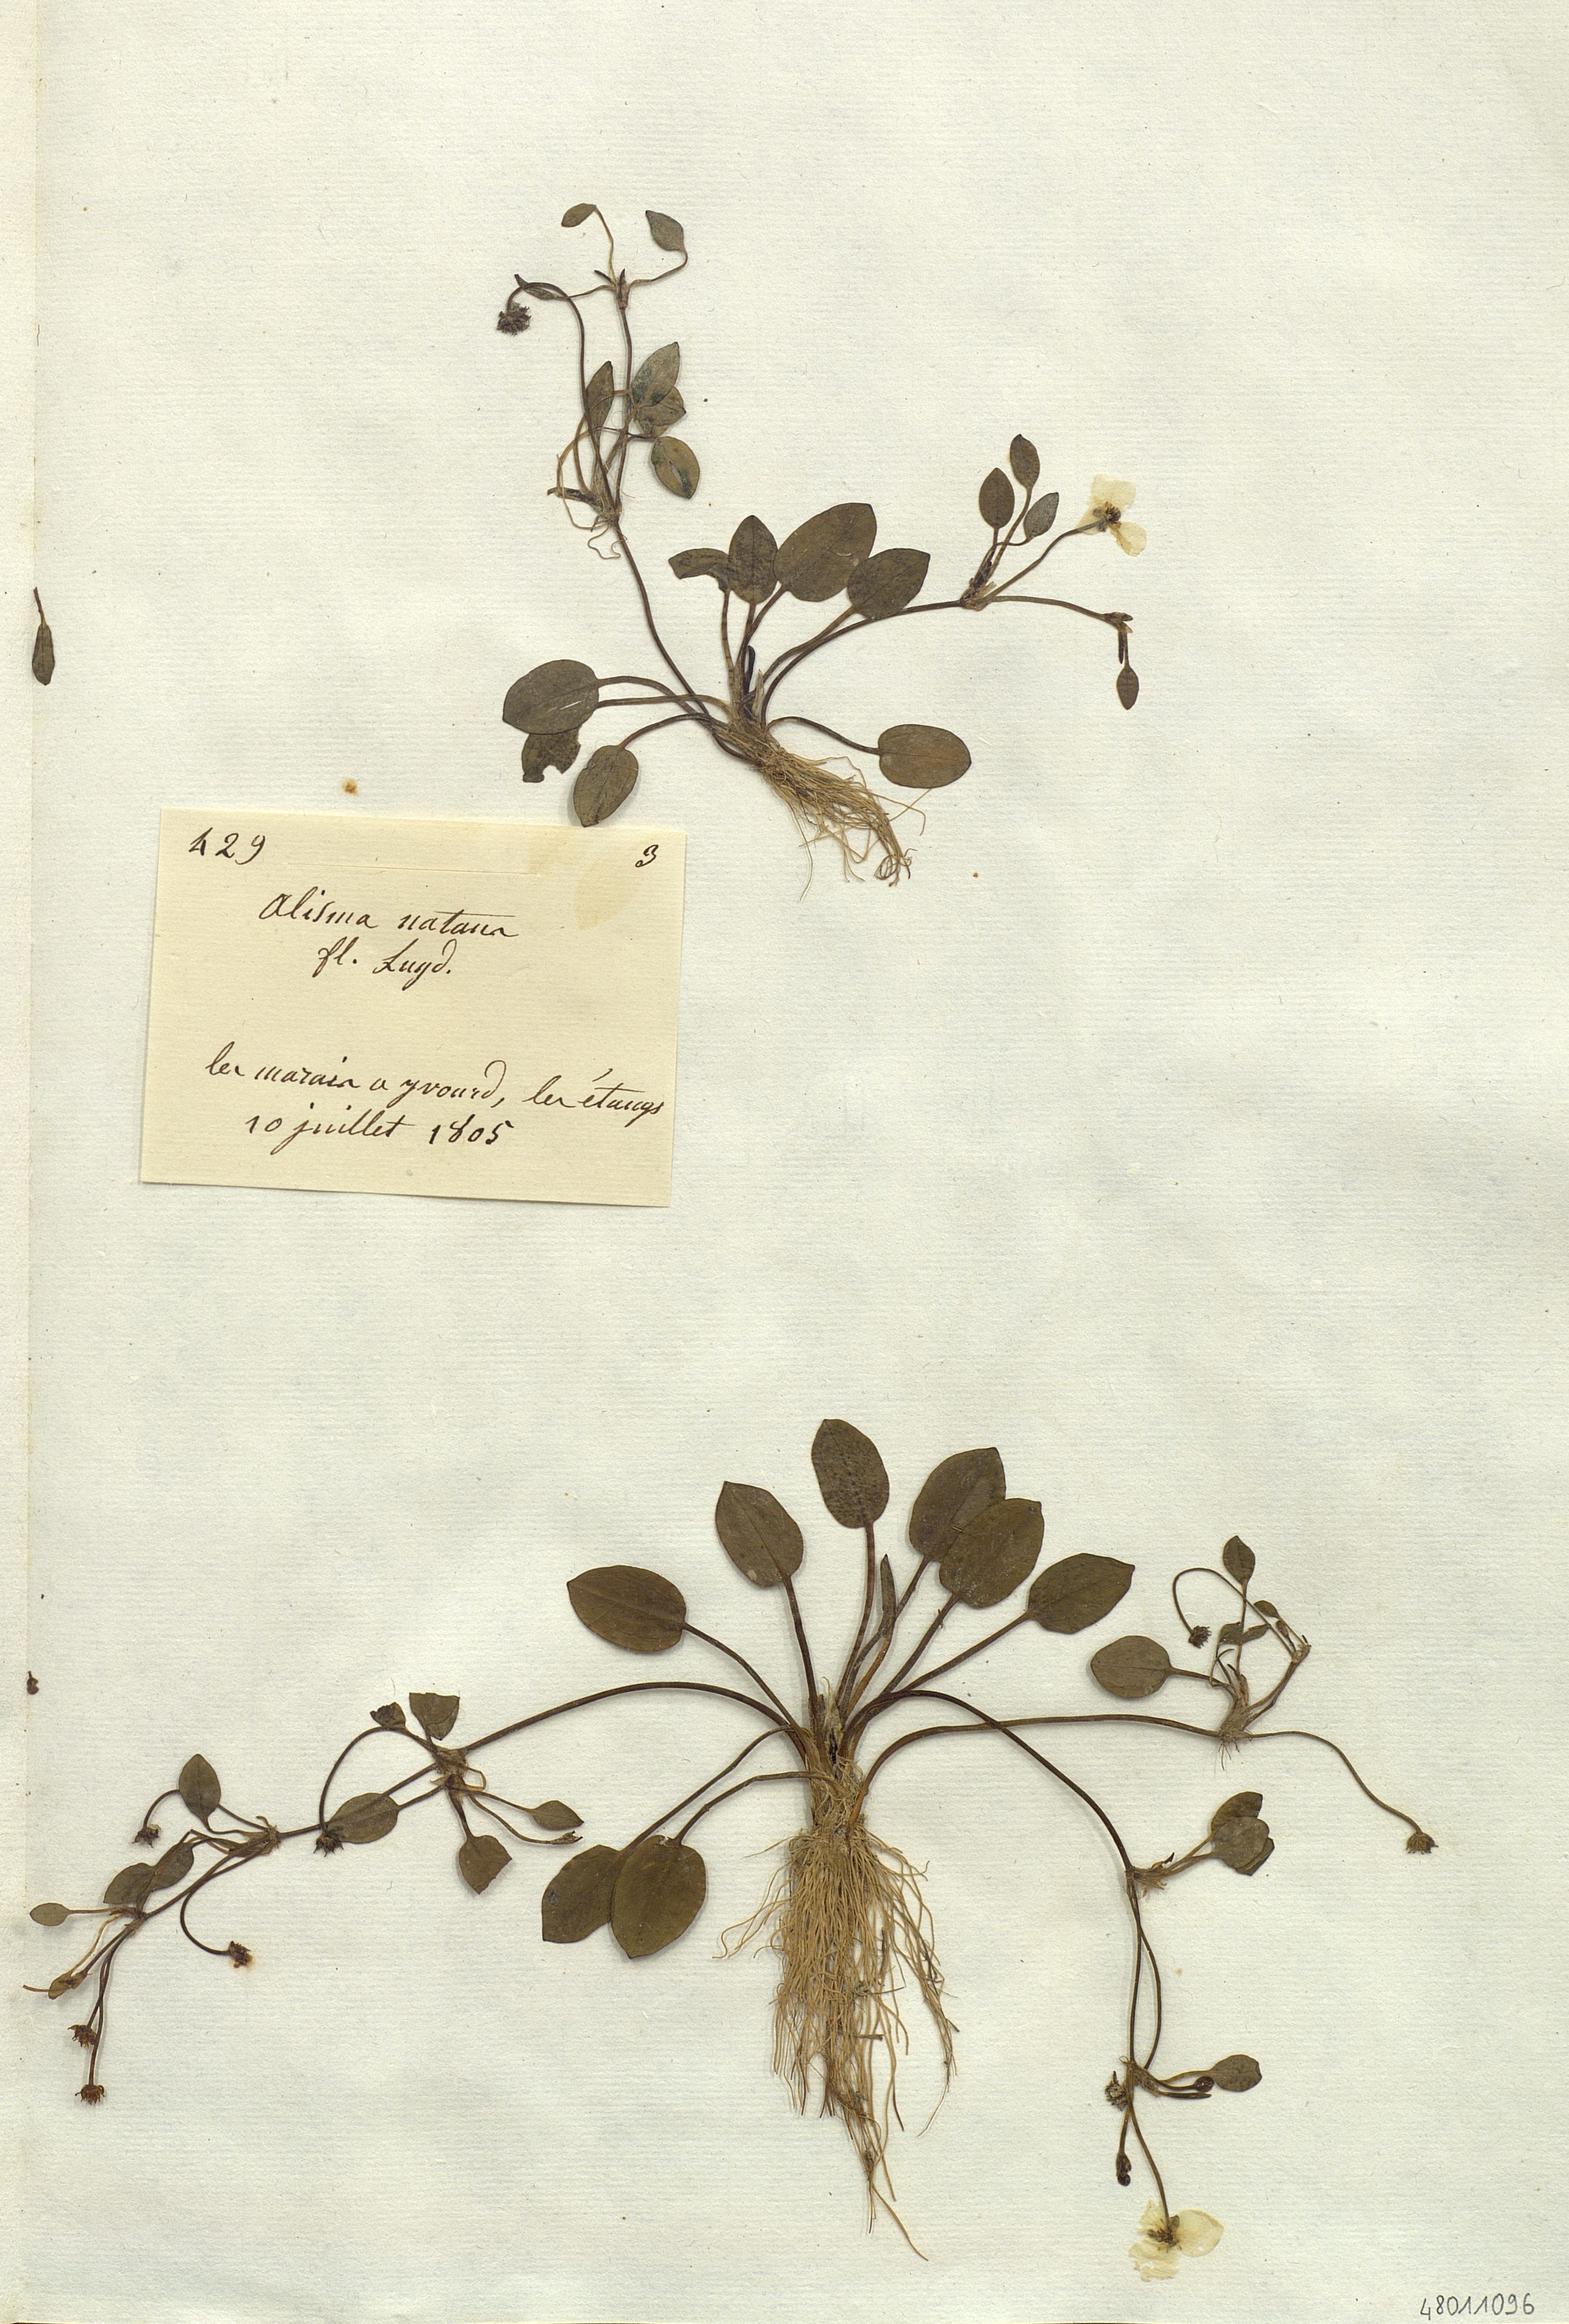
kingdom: Plantae
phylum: Tracheophyta
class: Liliopsida
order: Alismatales
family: Alismataceae
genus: Alisma
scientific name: Alisma plantago-aquatica
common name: Water-plantain
